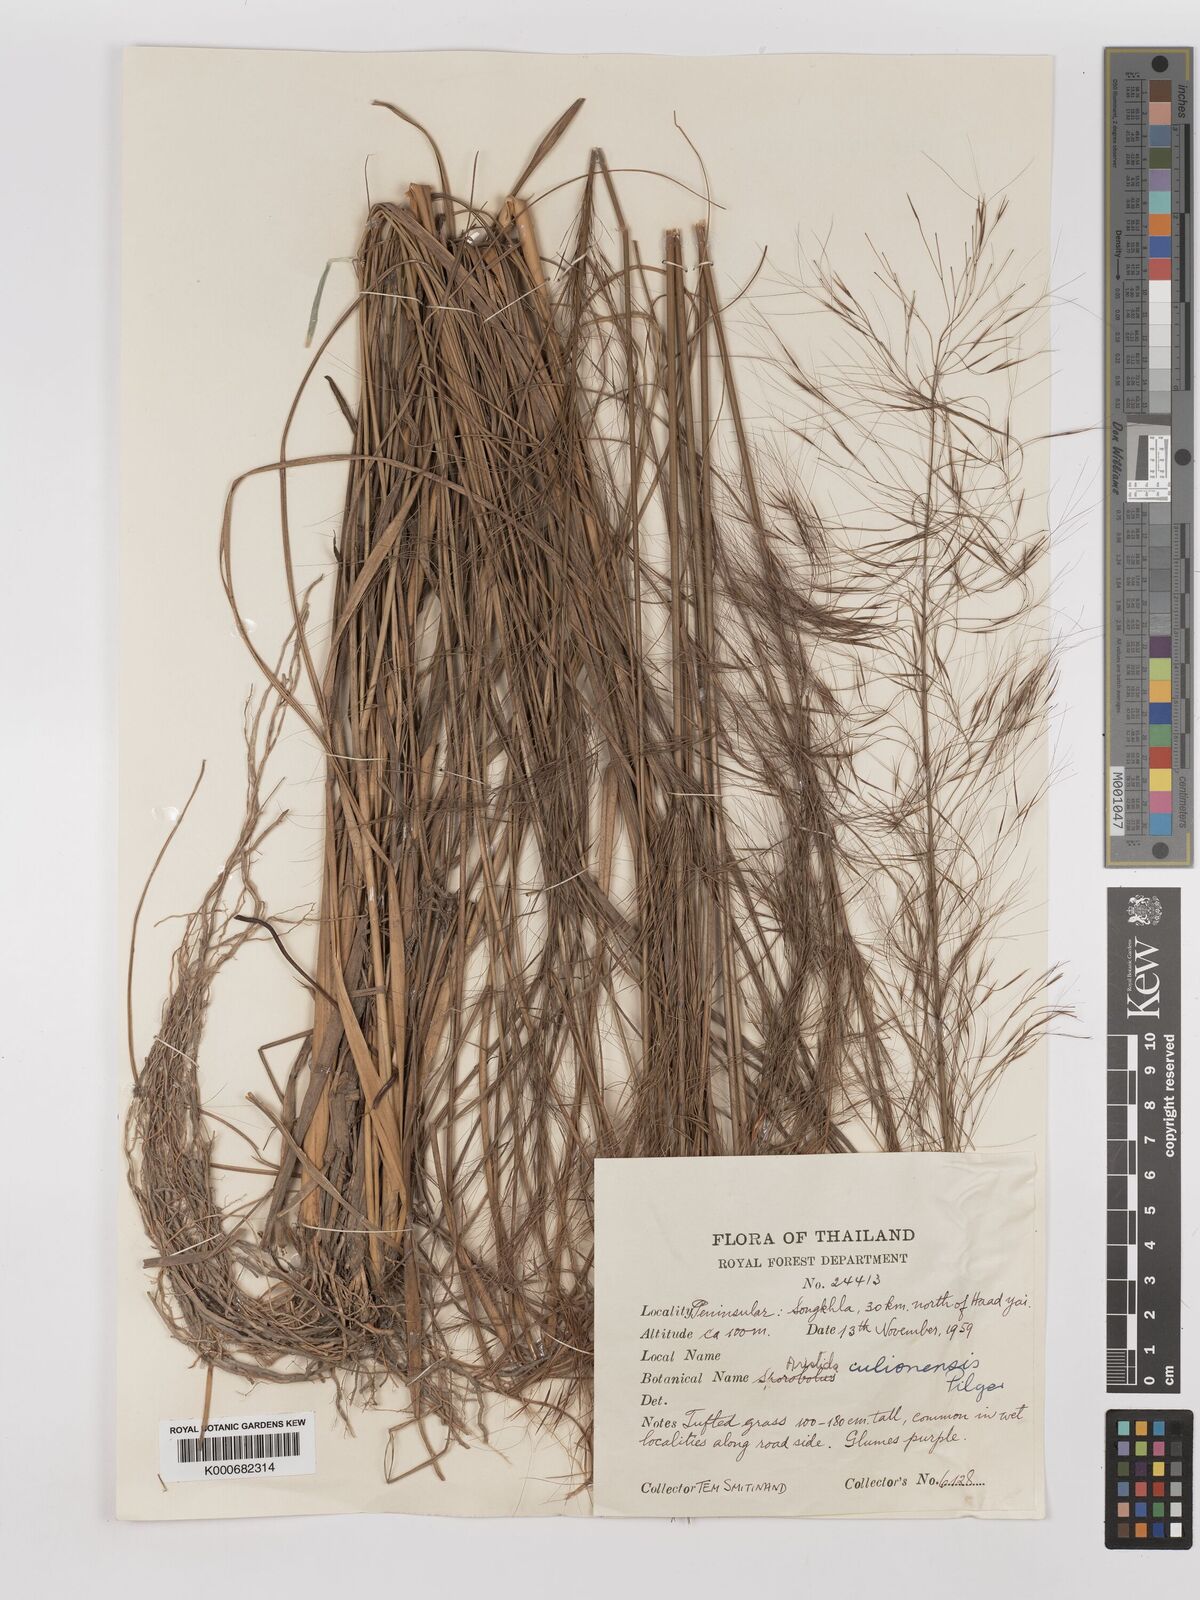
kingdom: Plantae
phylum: Tracheophyta
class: Liliopsida
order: Poales
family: Poaceae
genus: Aristida
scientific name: Aristida culionensis
